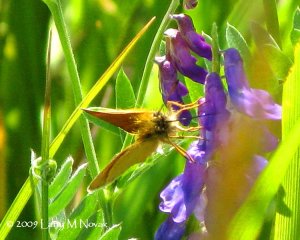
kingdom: Animalia
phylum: Arthropoda
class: Insecta
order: Lepidoptera
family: Hesperiidae
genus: Thymelicus
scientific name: Thymelicus lineola
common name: European Skipper
